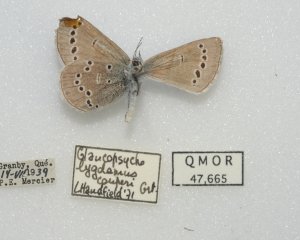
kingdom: Animalia
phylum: Arthropoda
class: Insecta
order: Lepidoptera
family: Lycaenidae
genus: Glaucopsyche
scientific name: Glaucopsyche lygdamus
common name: Silvery Blue
